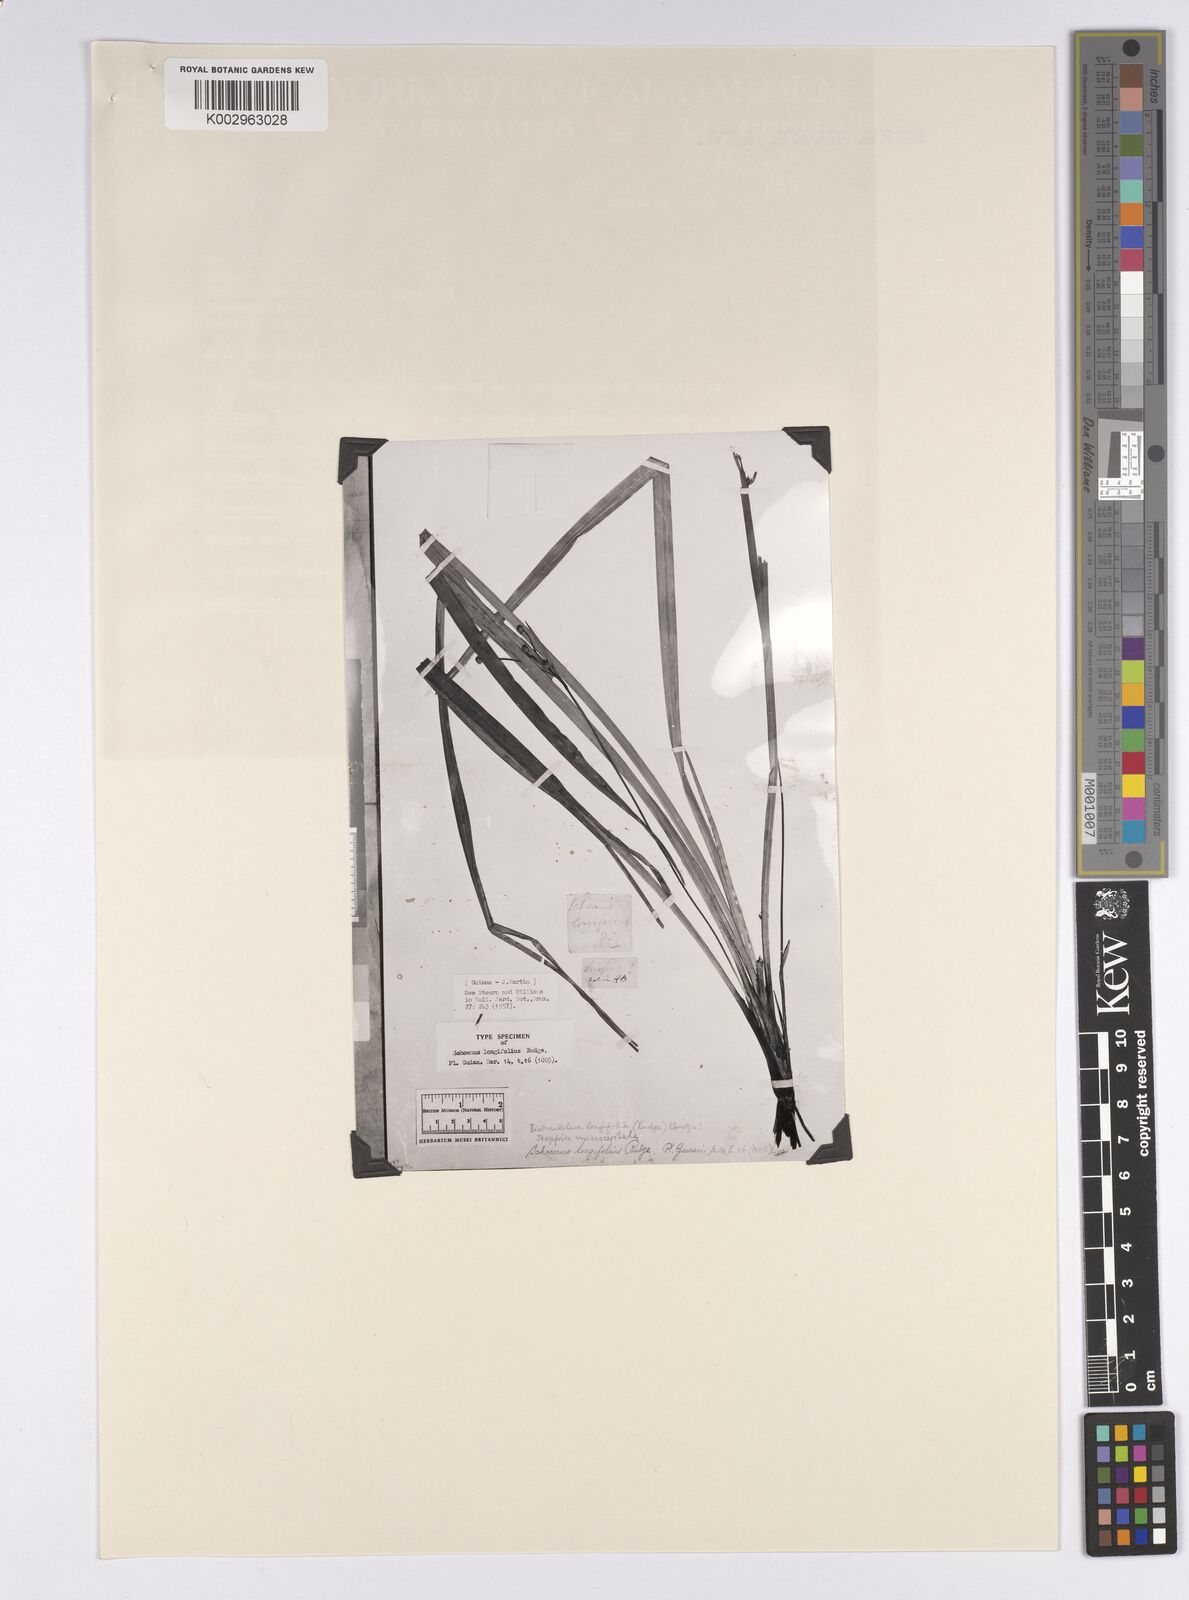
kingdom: Plantae
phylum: Tracheophyta
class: Liliopsida
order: Poales
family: Cyperaceae
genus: Bisboeckelera
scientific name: Bisboeckelera longifolia
